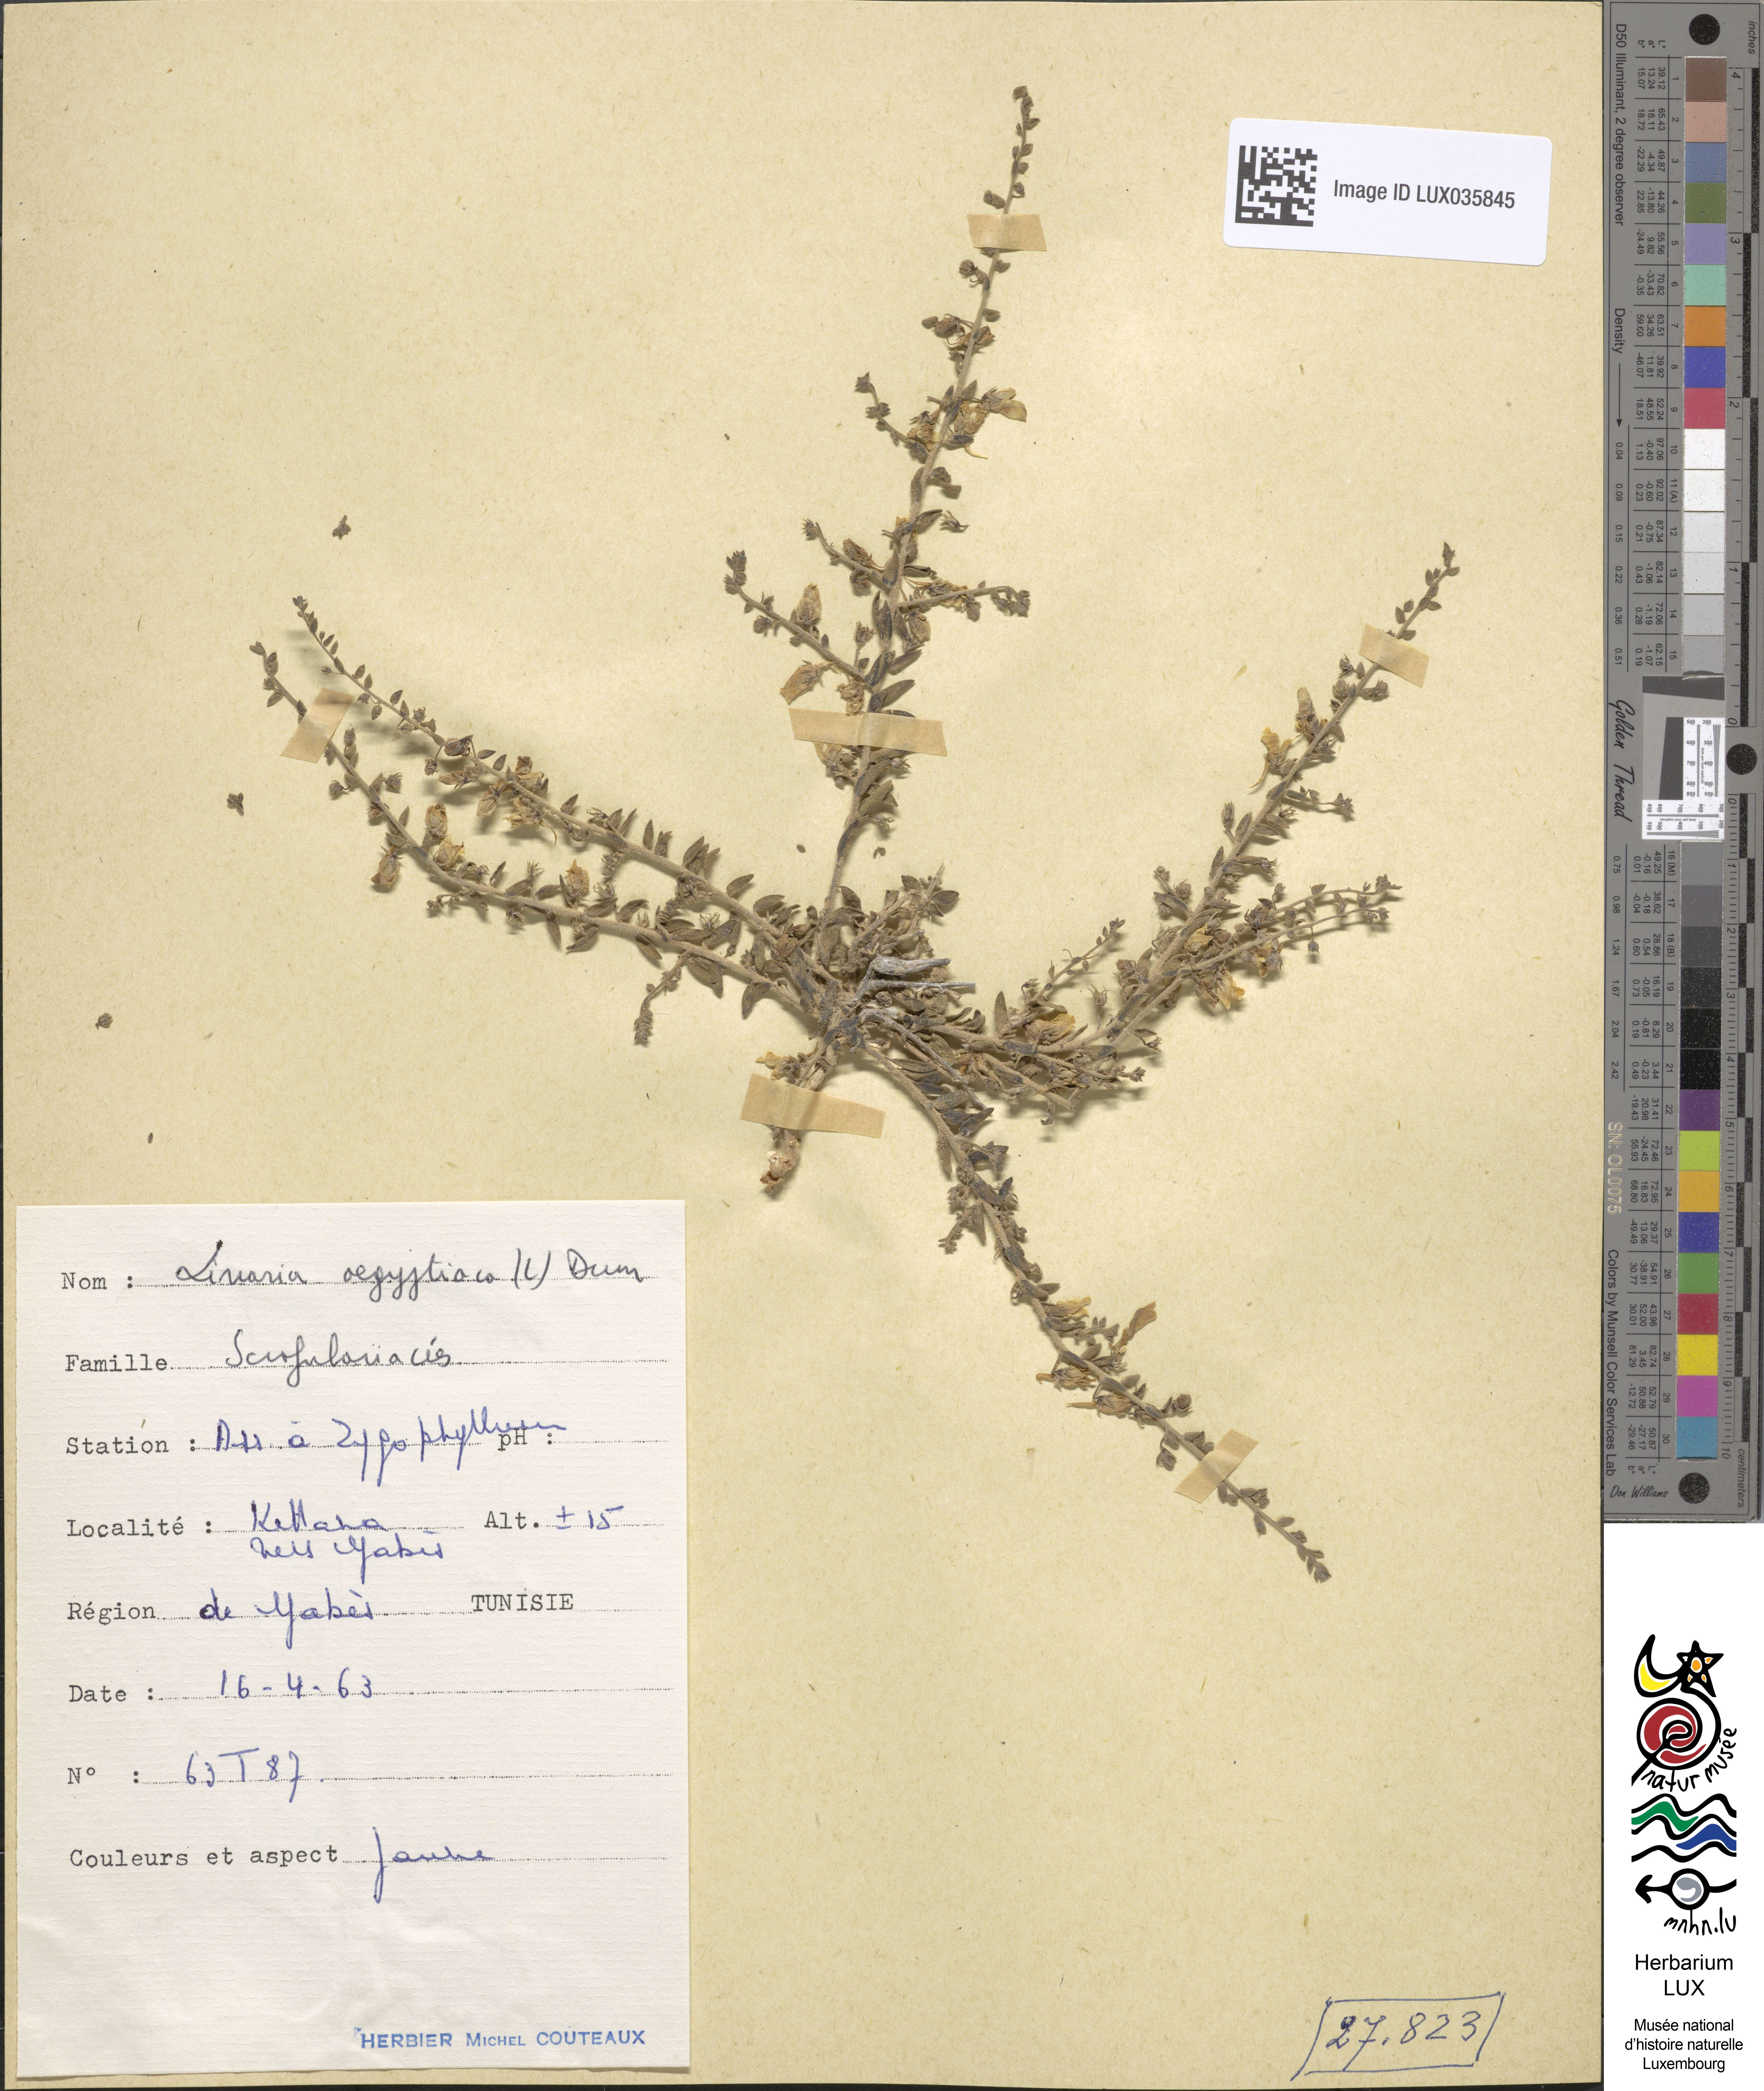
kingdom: Plantae
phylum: Tracheophyta
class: Magnoliopsida
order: Lamiales
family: Plantaginaceae
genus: Kickxia
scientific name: Kickxia aegyptiaca
